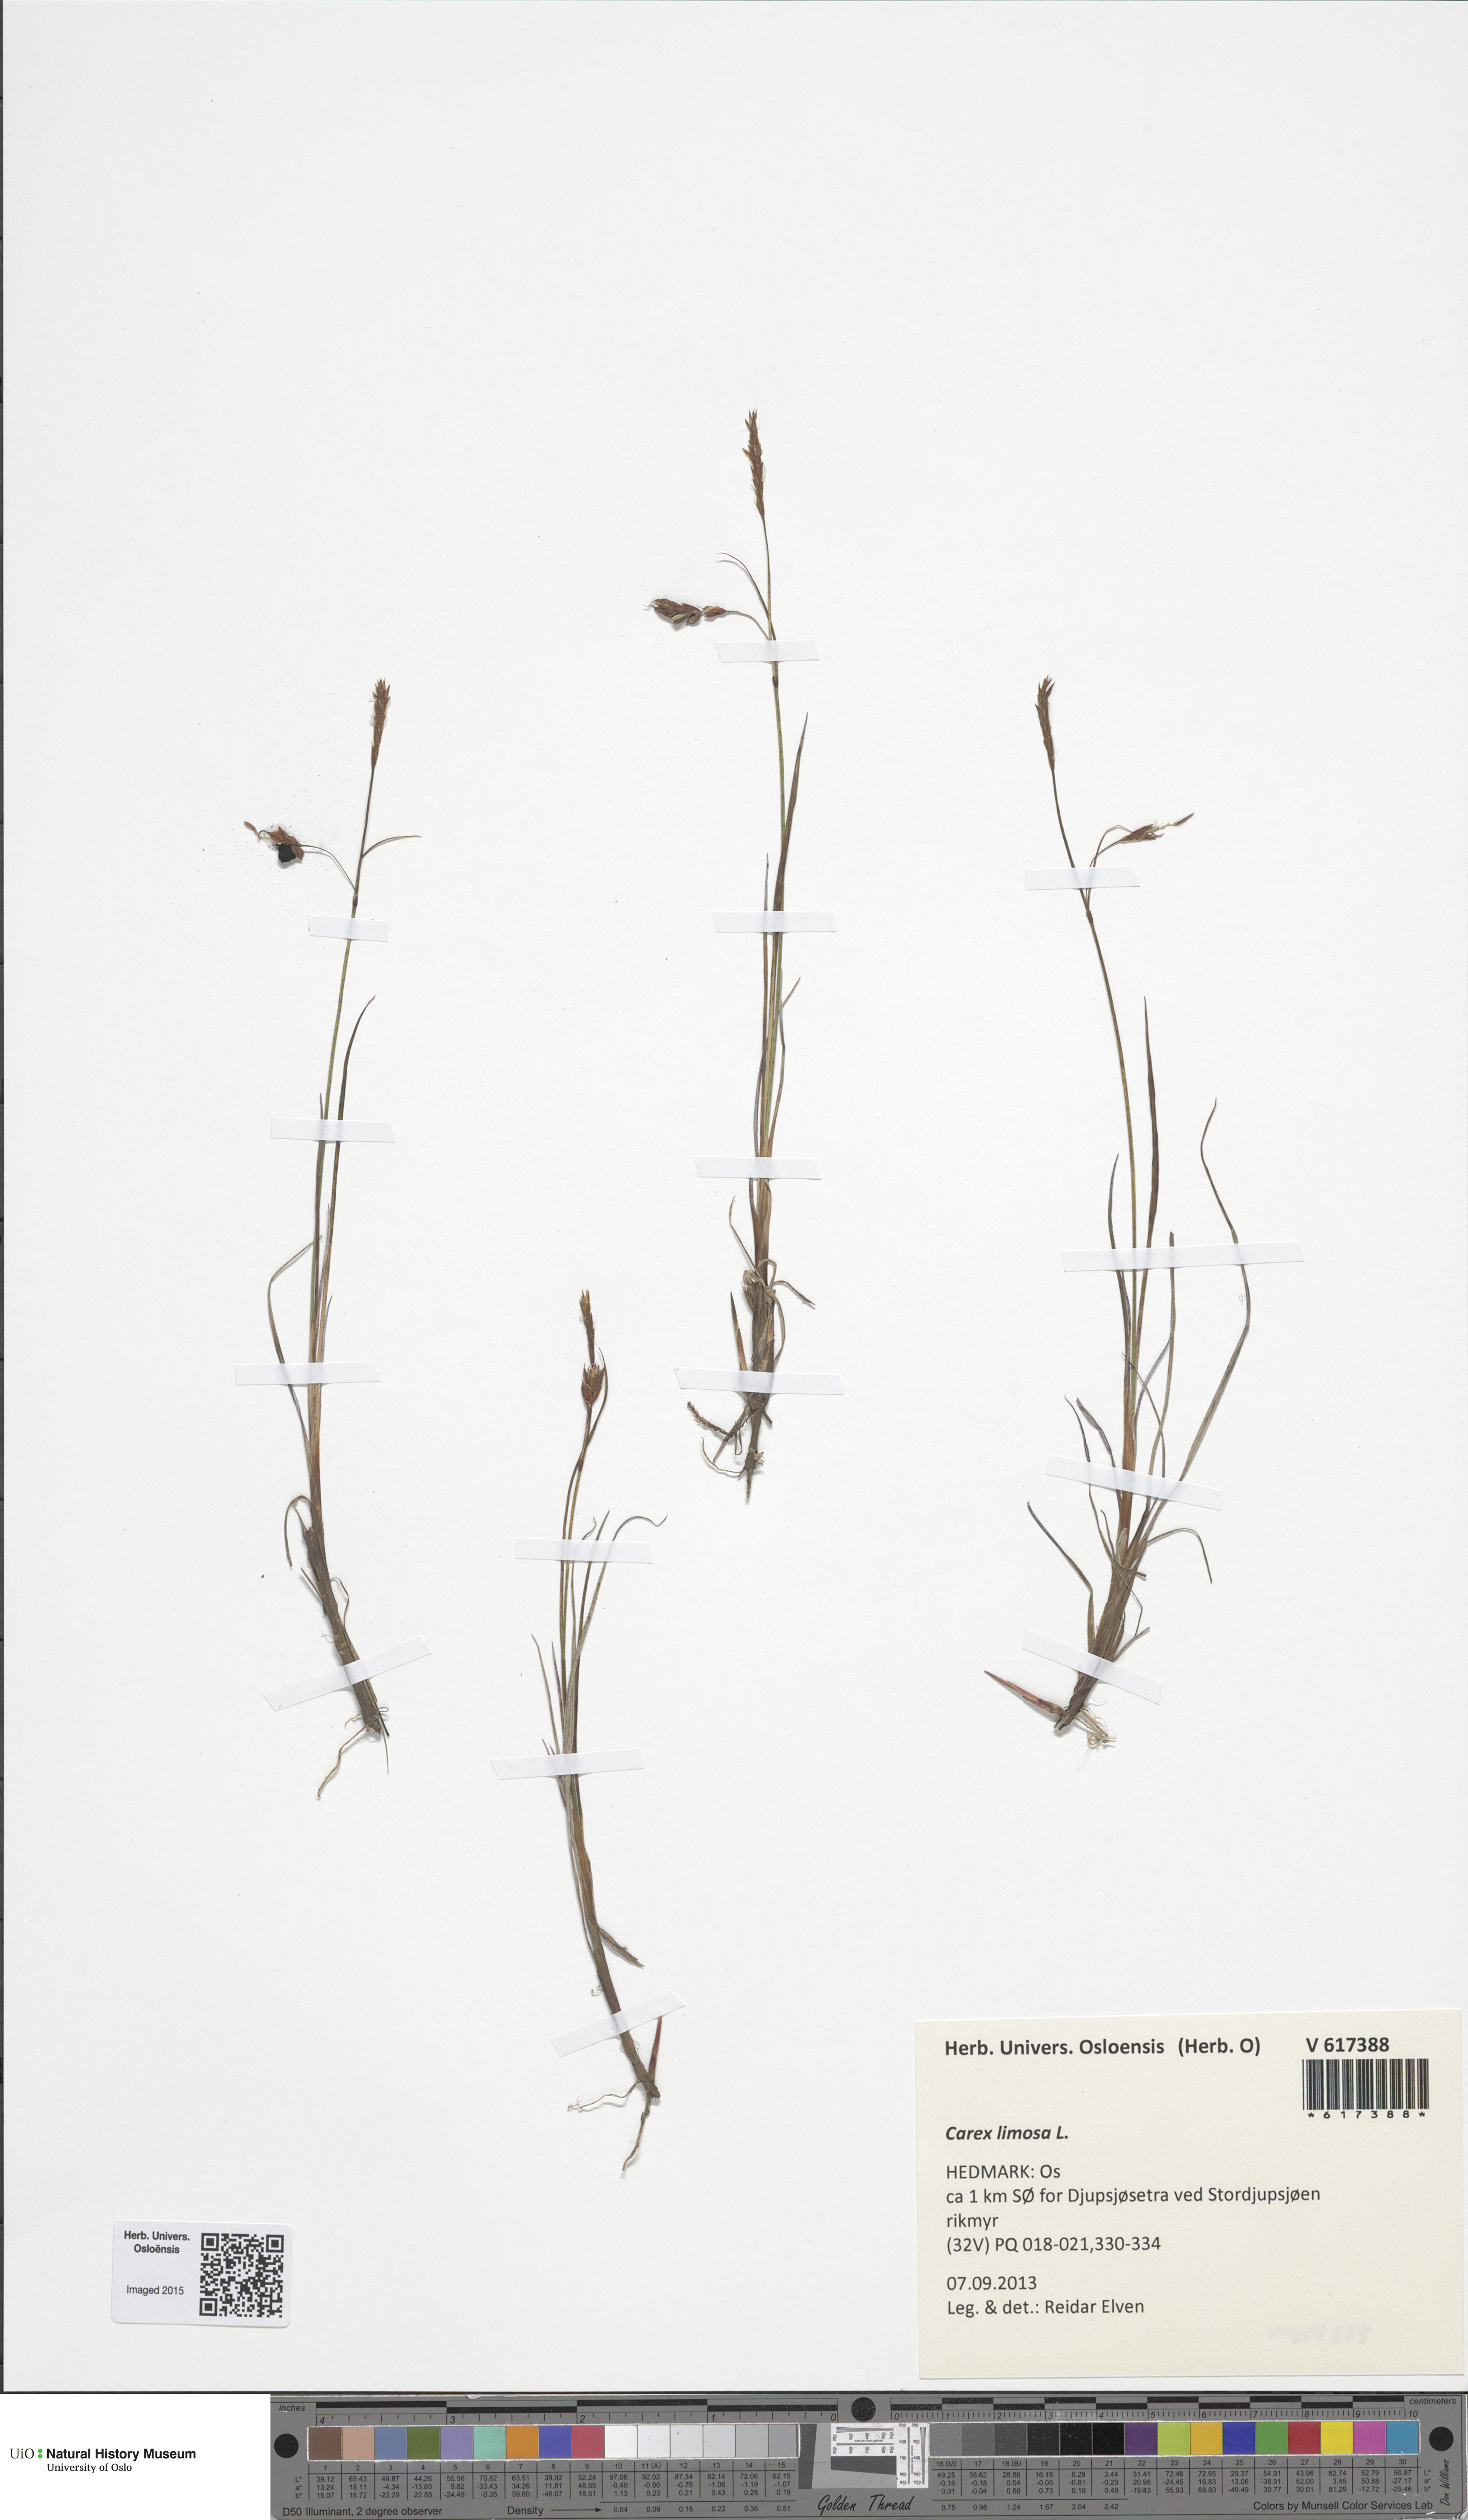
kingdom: Plantae
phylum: Tracheophyta
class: Liliopsida
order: Poales
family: Cyperaceae
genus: Carex
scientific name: Carex limosa
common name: Bog sedge
